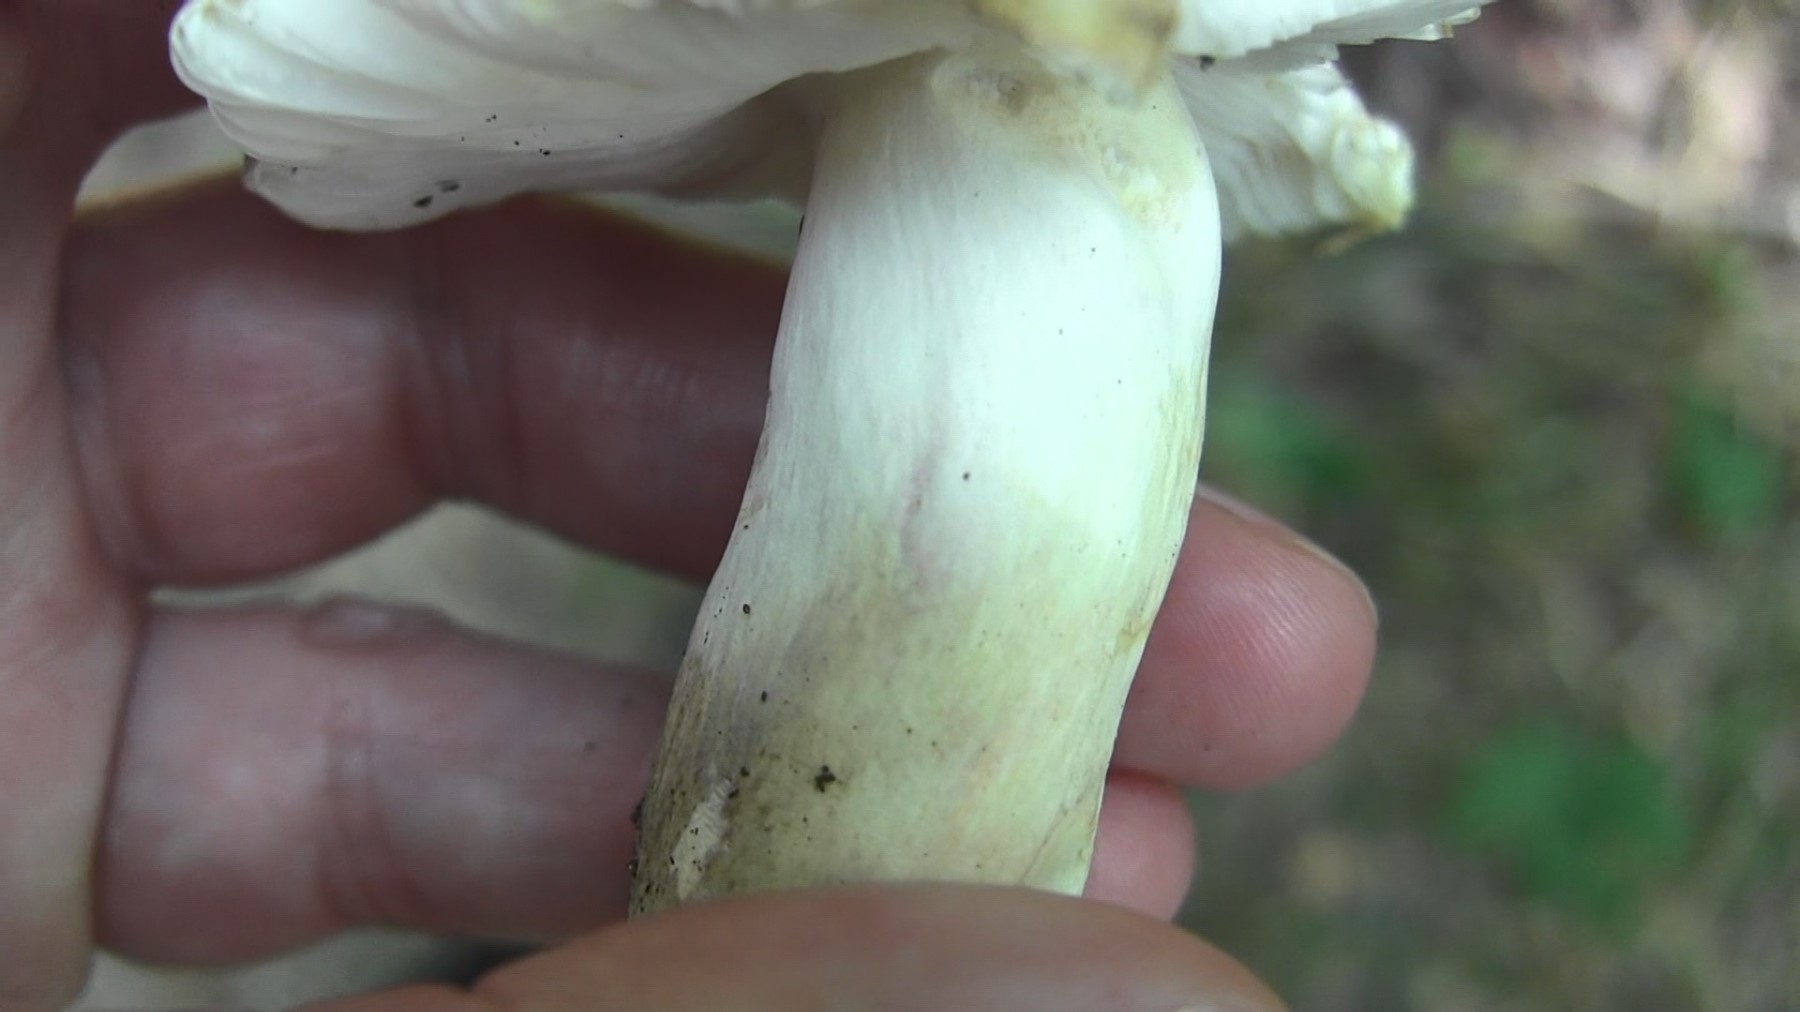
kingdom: Fungi
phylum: Basidiomycota
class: Agaricomycetes
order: Russulales
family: Russulaceae
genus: Russula
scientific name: Russula violeipes
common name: ferskengul skørhat
